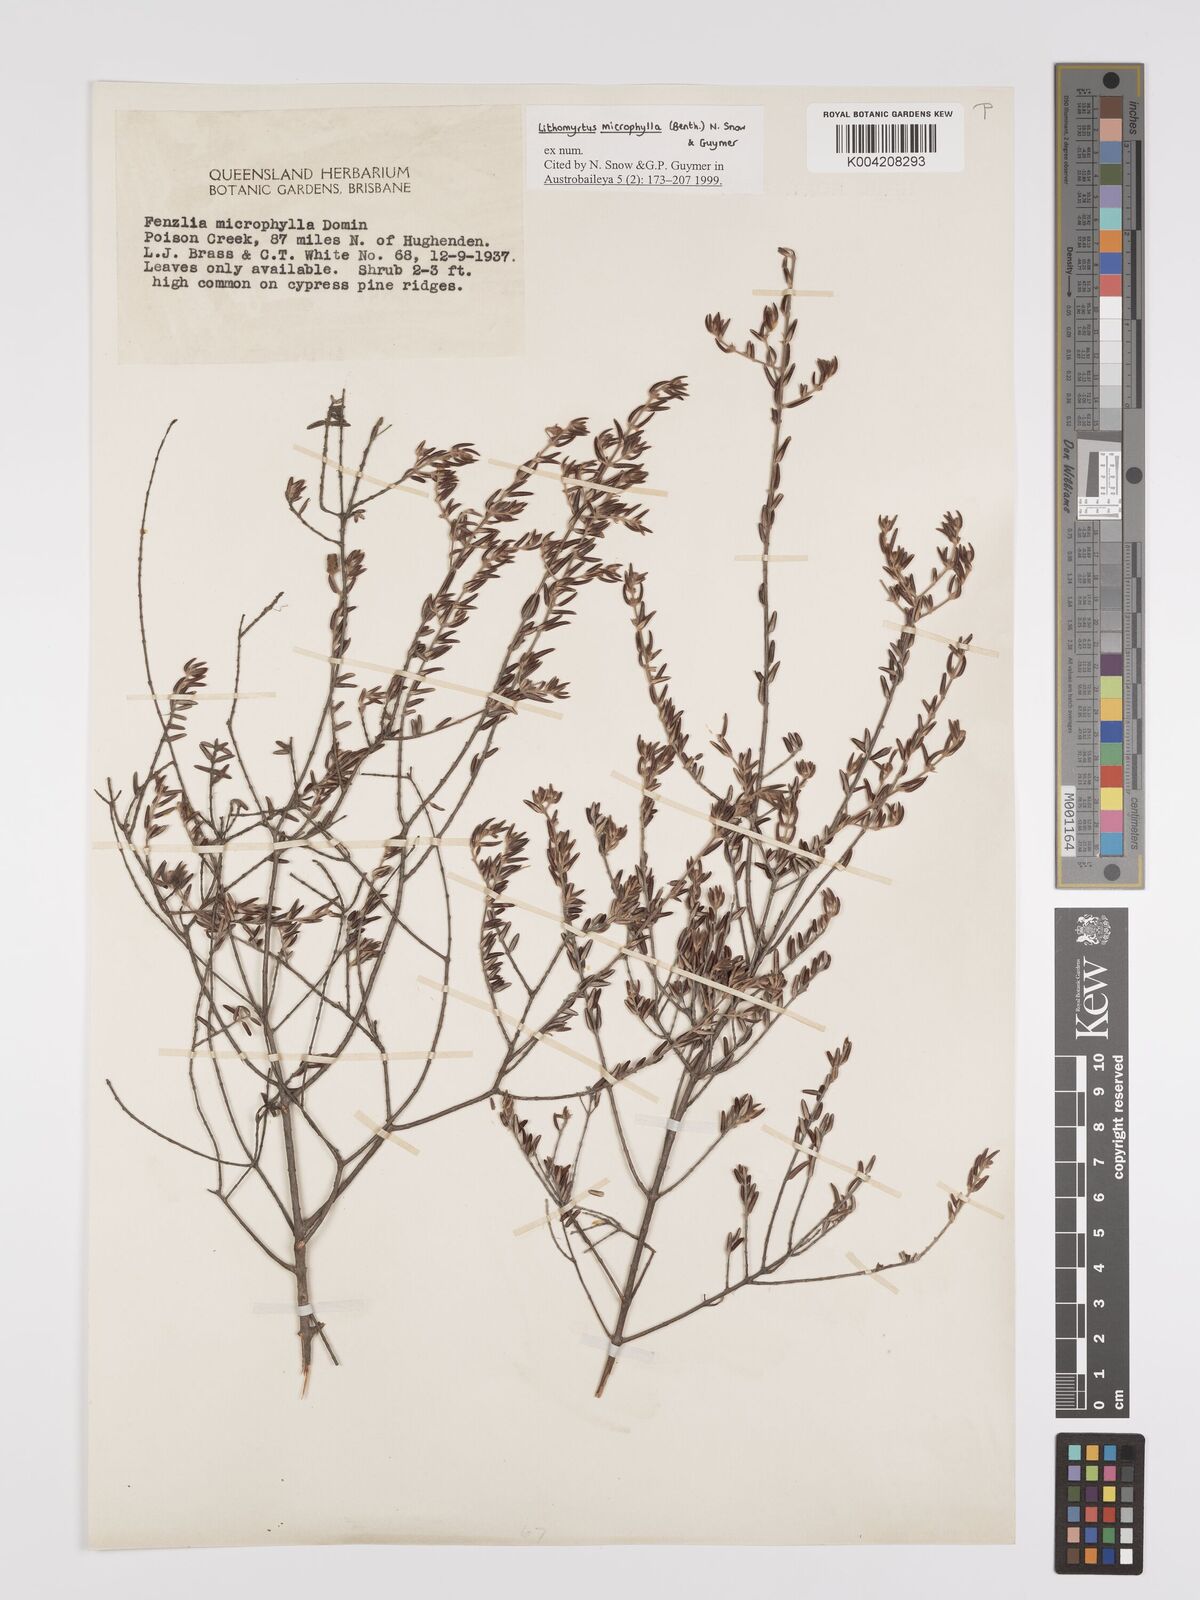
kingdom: Plantae
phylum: Tracheophyta
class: Magnoliopsida
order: Myrtales
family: Myrtaceae
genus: Lithomyrtus
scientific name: Lithomyrtus microphylla
